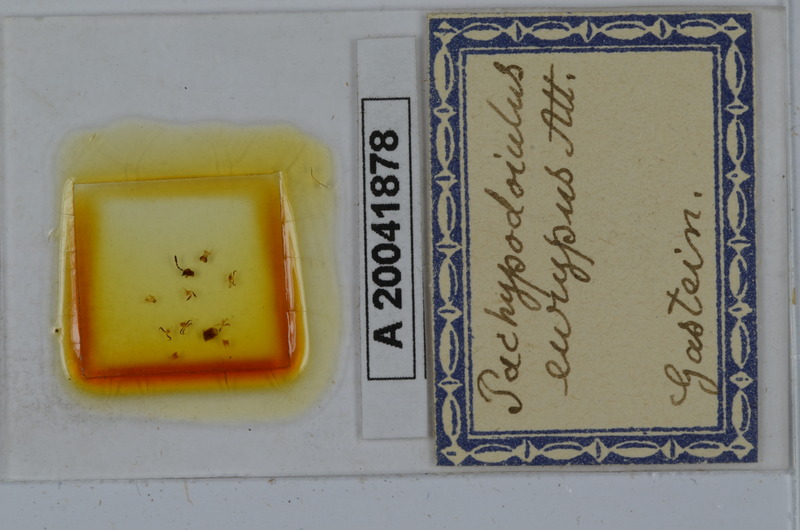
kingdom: Animalia
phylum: Arthropoda
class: Diplopoda
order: Julida
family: Julidae
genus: Pachypodoiulus
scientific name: Pachypodoiulus eurypus
